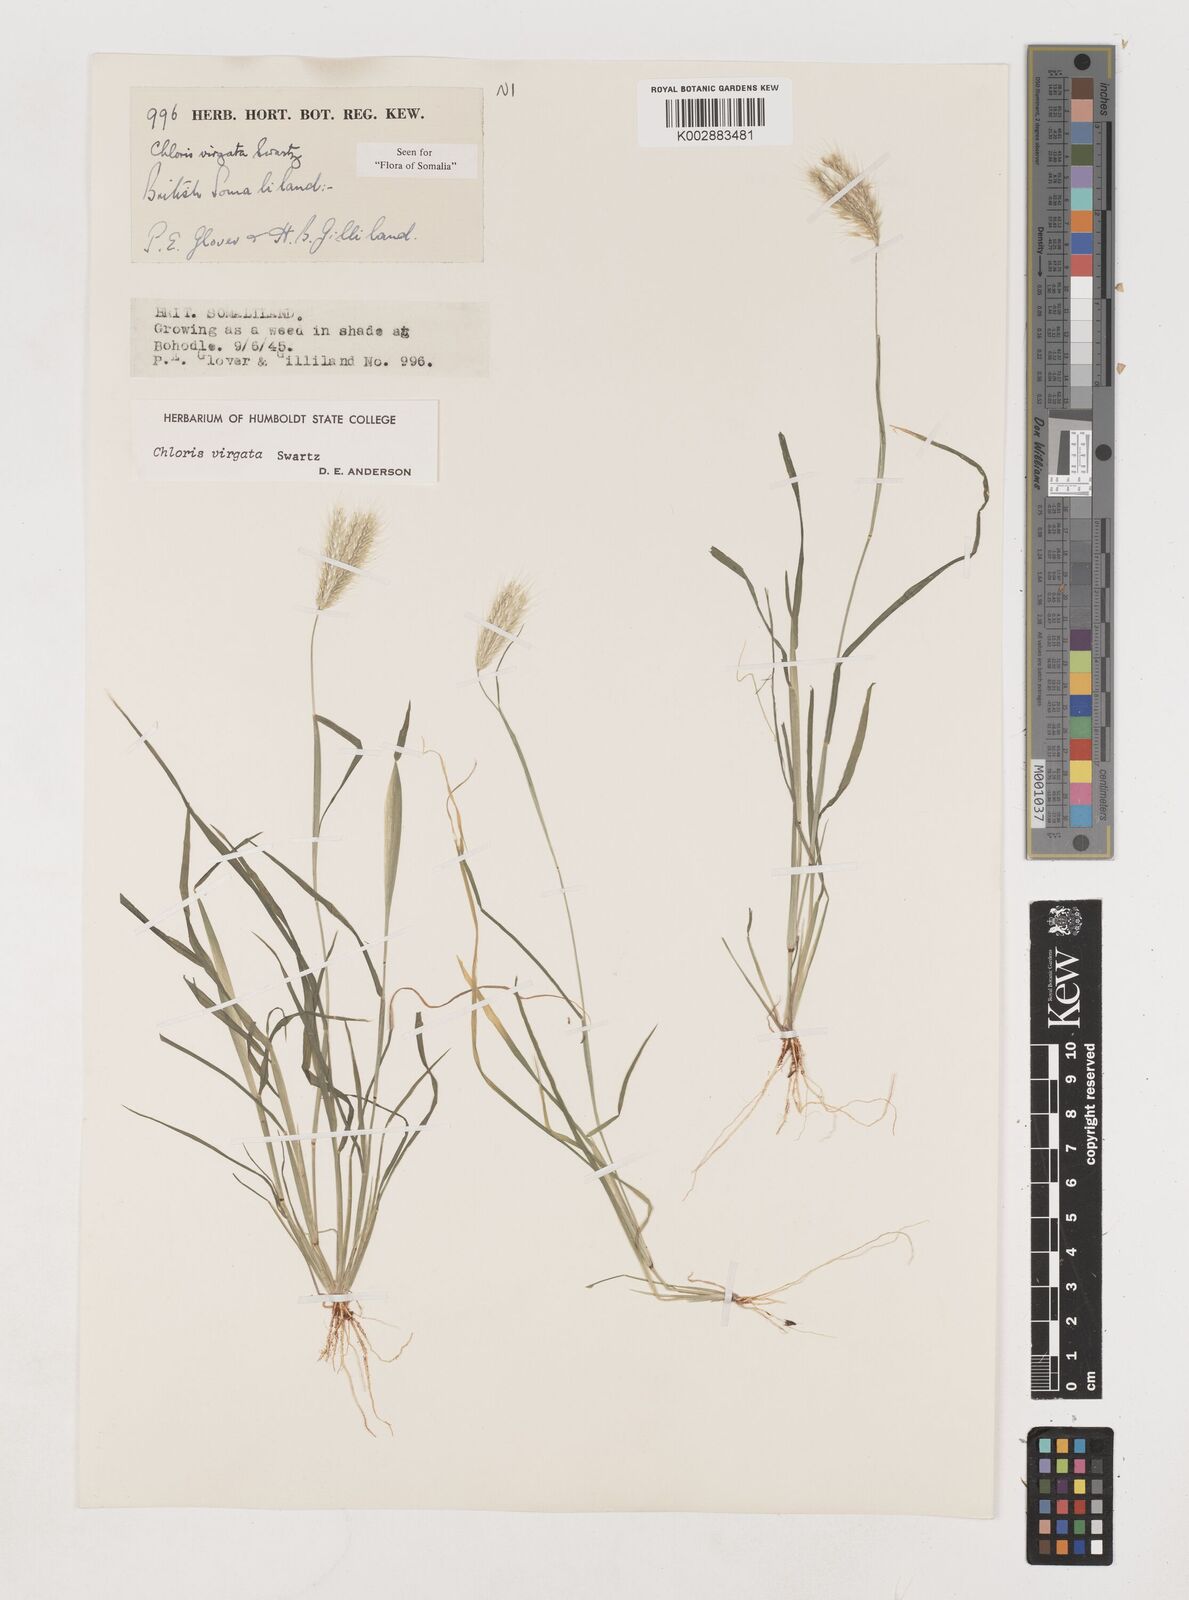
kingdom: Plantae
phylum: Tracheophyta
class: Liliopsida
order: Poales
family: Poaceae
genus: Chloris
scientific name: Chloris virgata
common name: Feathery rhodes-grass
